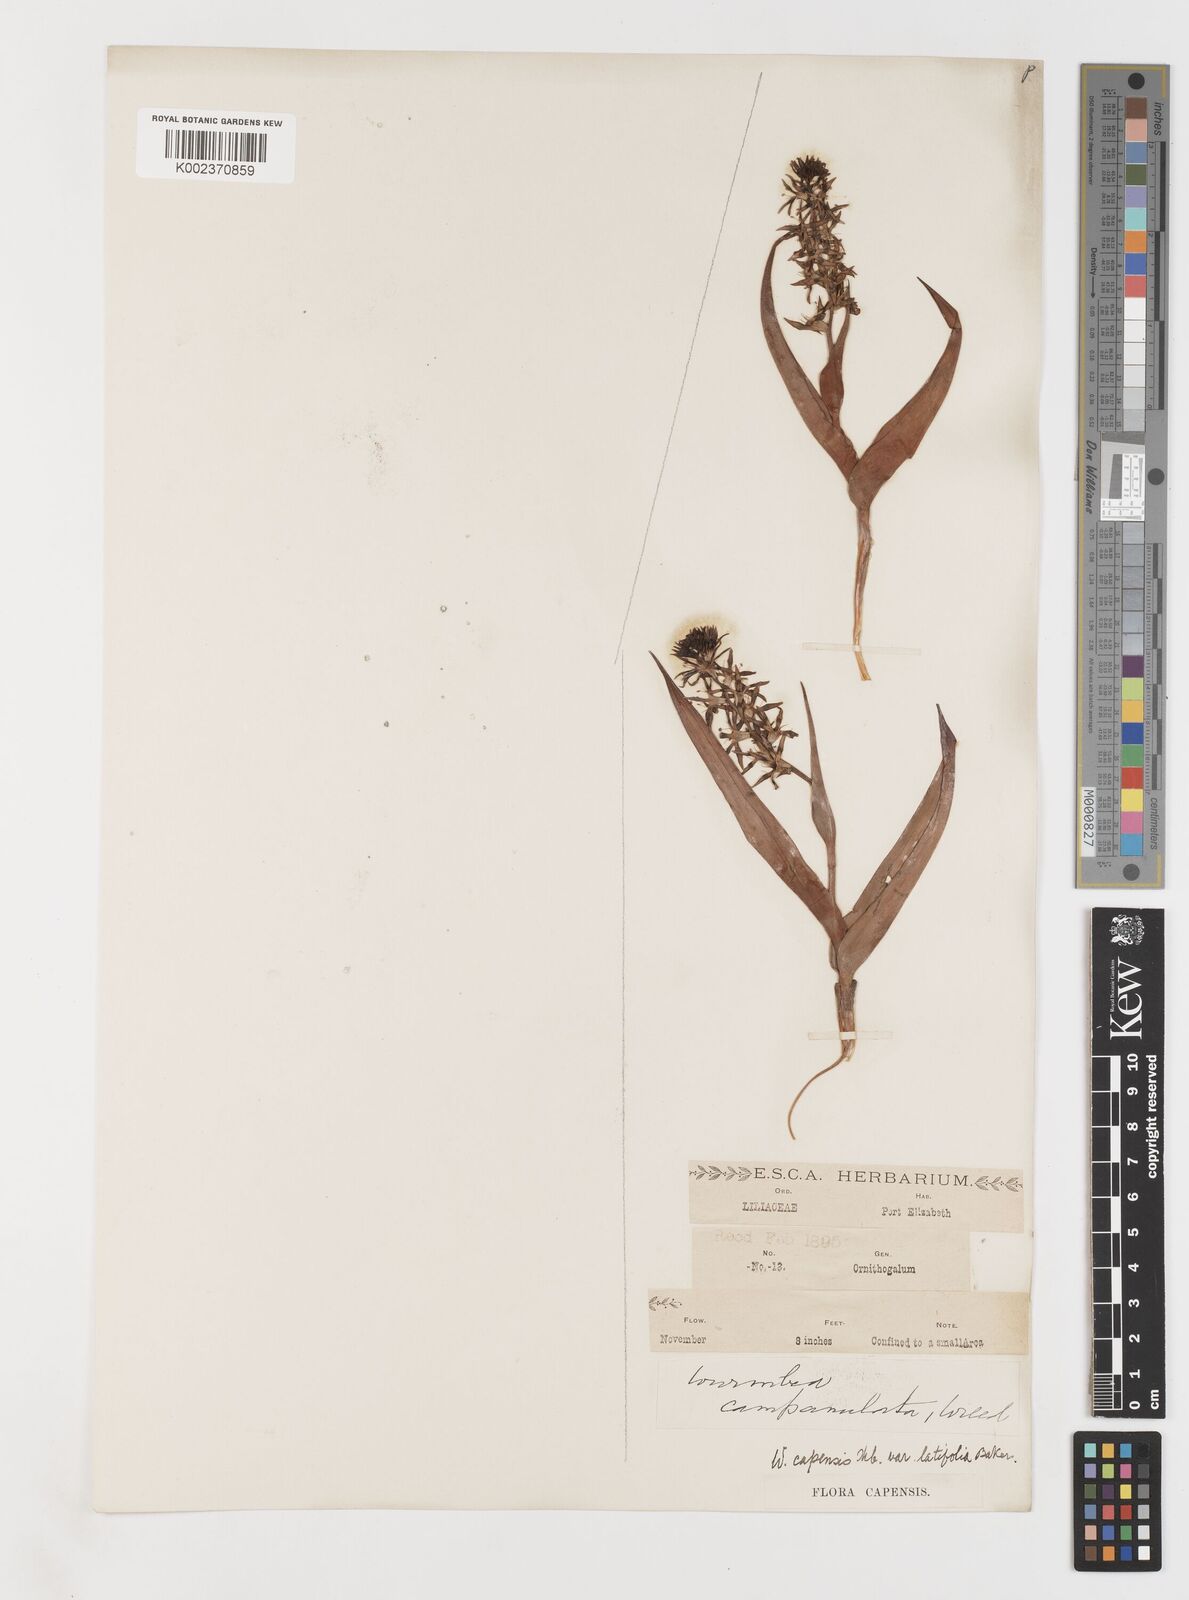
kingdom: Plantae
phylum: Tracheophyta
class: Liliopsida
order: Liliales
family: Colchicaceae
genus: Wurmbea
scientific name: Wurmbea capensis
